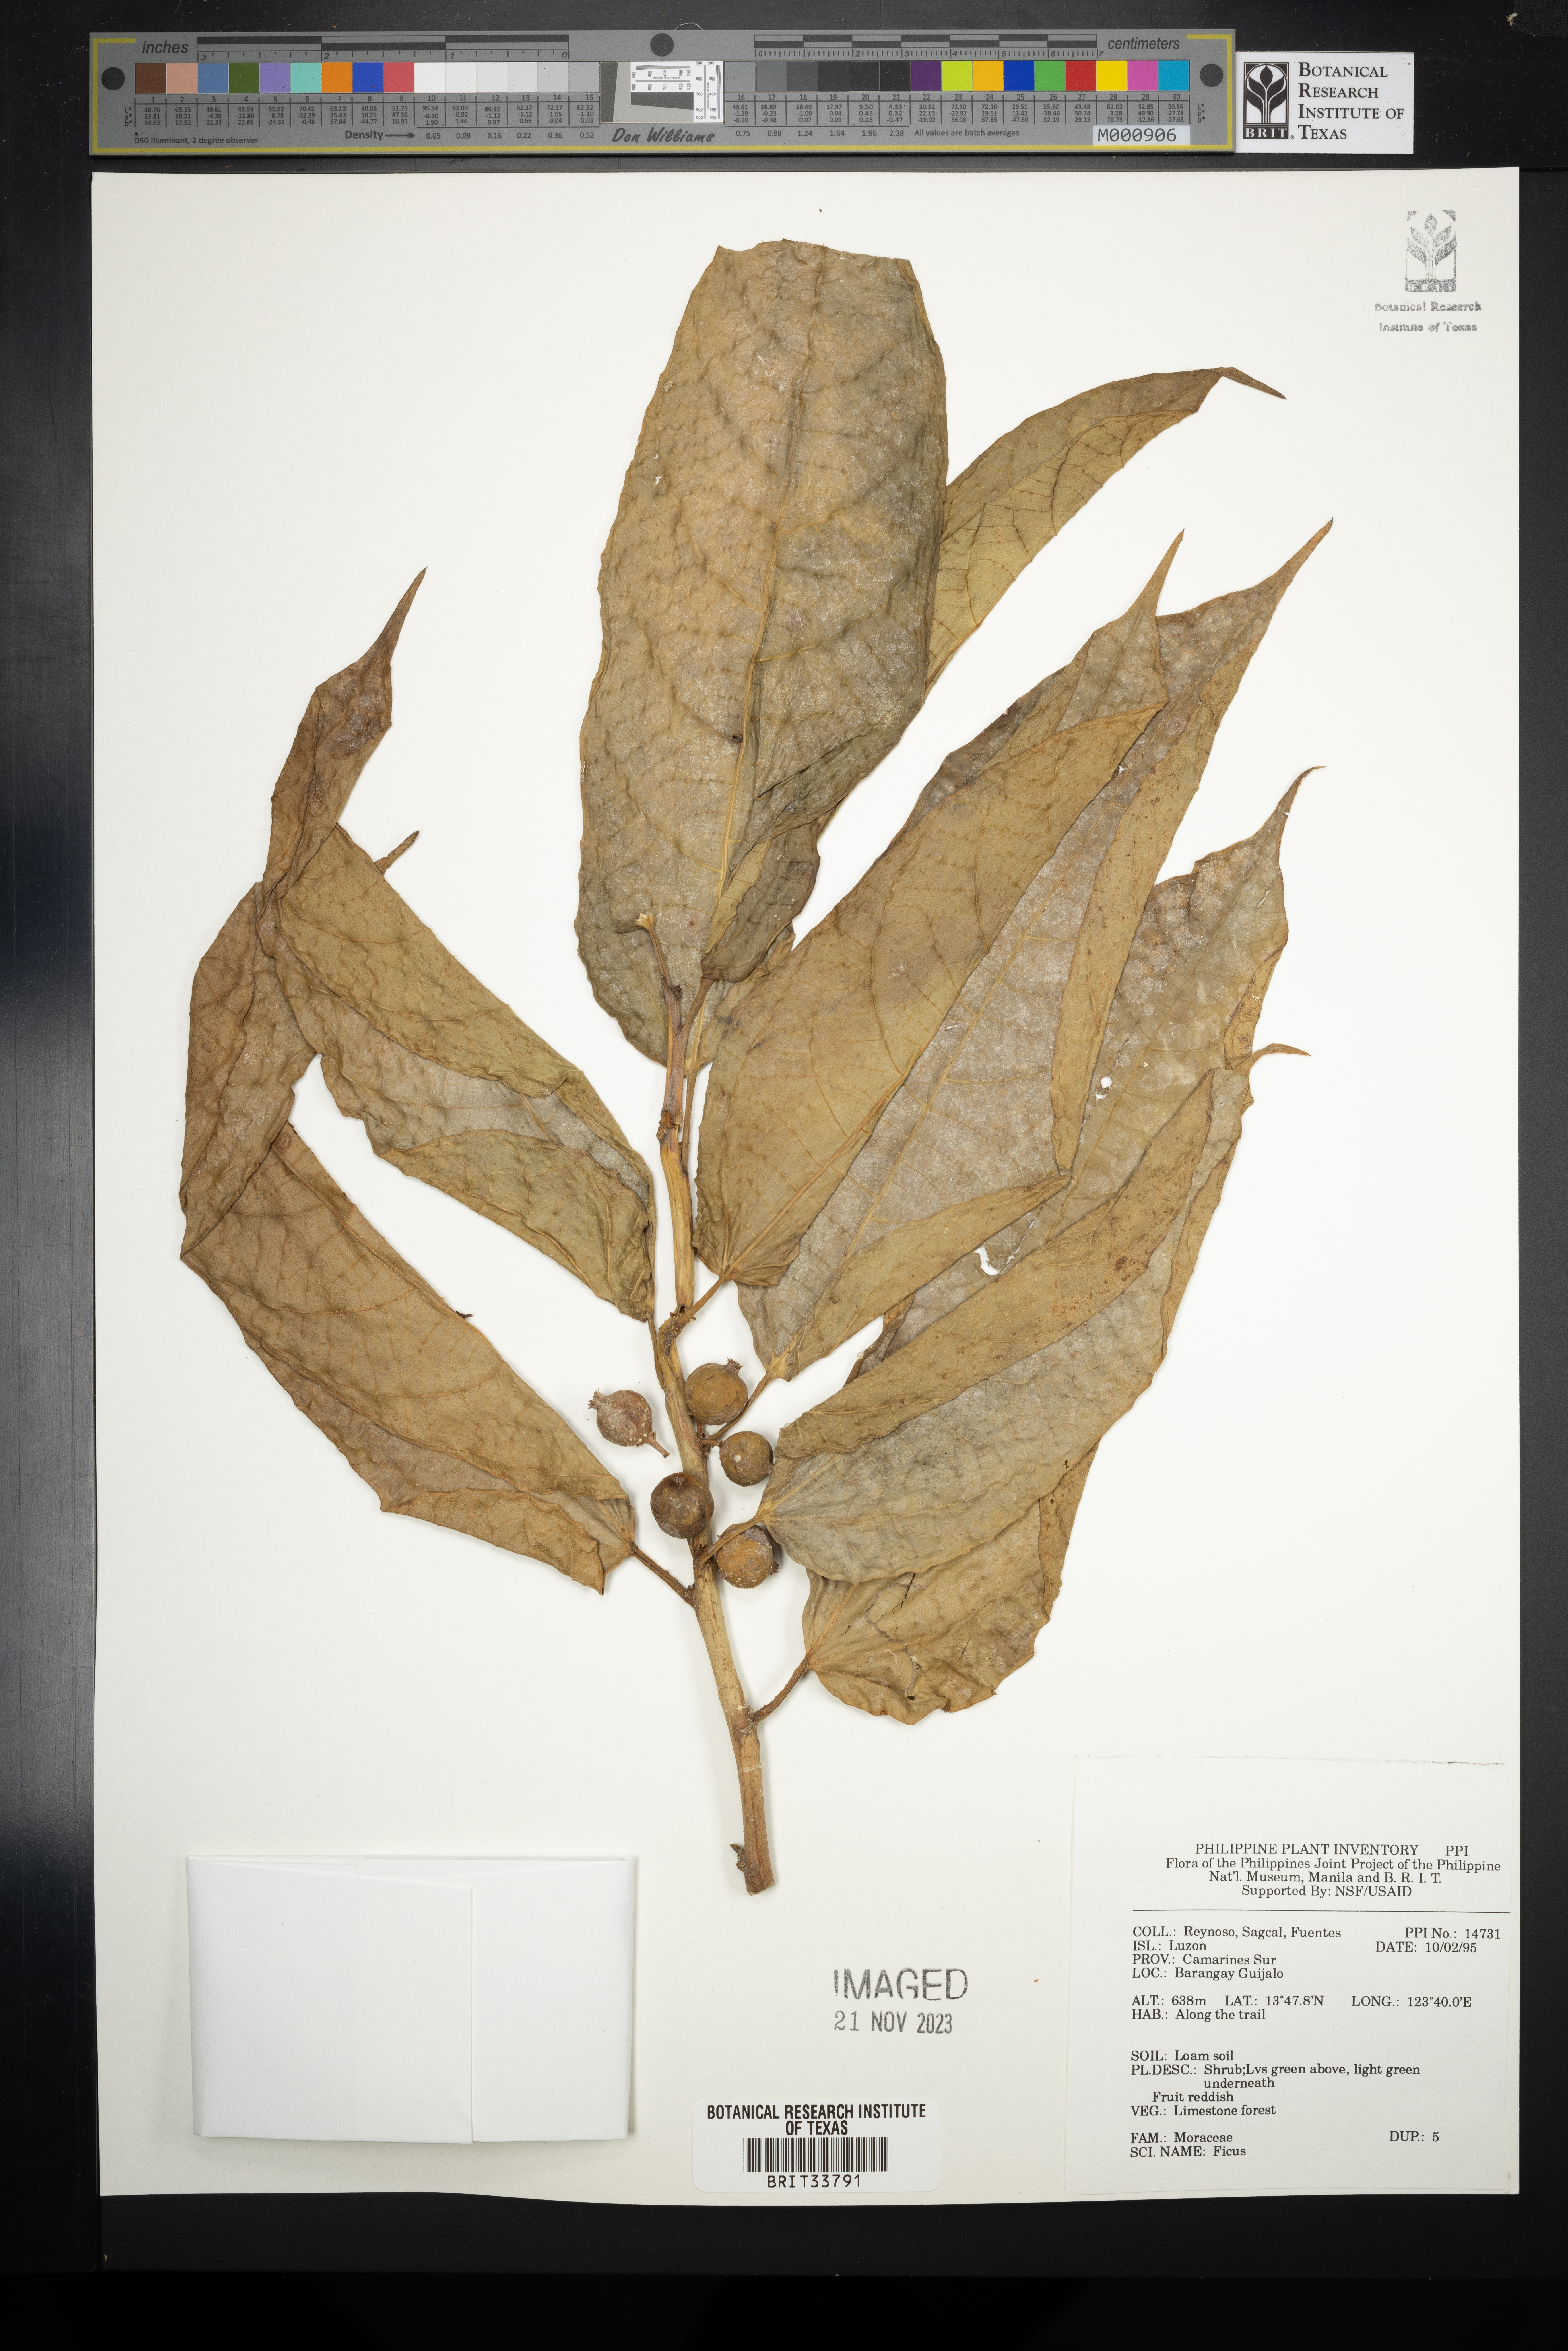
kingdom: Plantae
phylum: Tracheophyta
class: Magnoliopsida
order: Rosales
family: Moraceae
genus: Ficus
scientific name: Ficus
